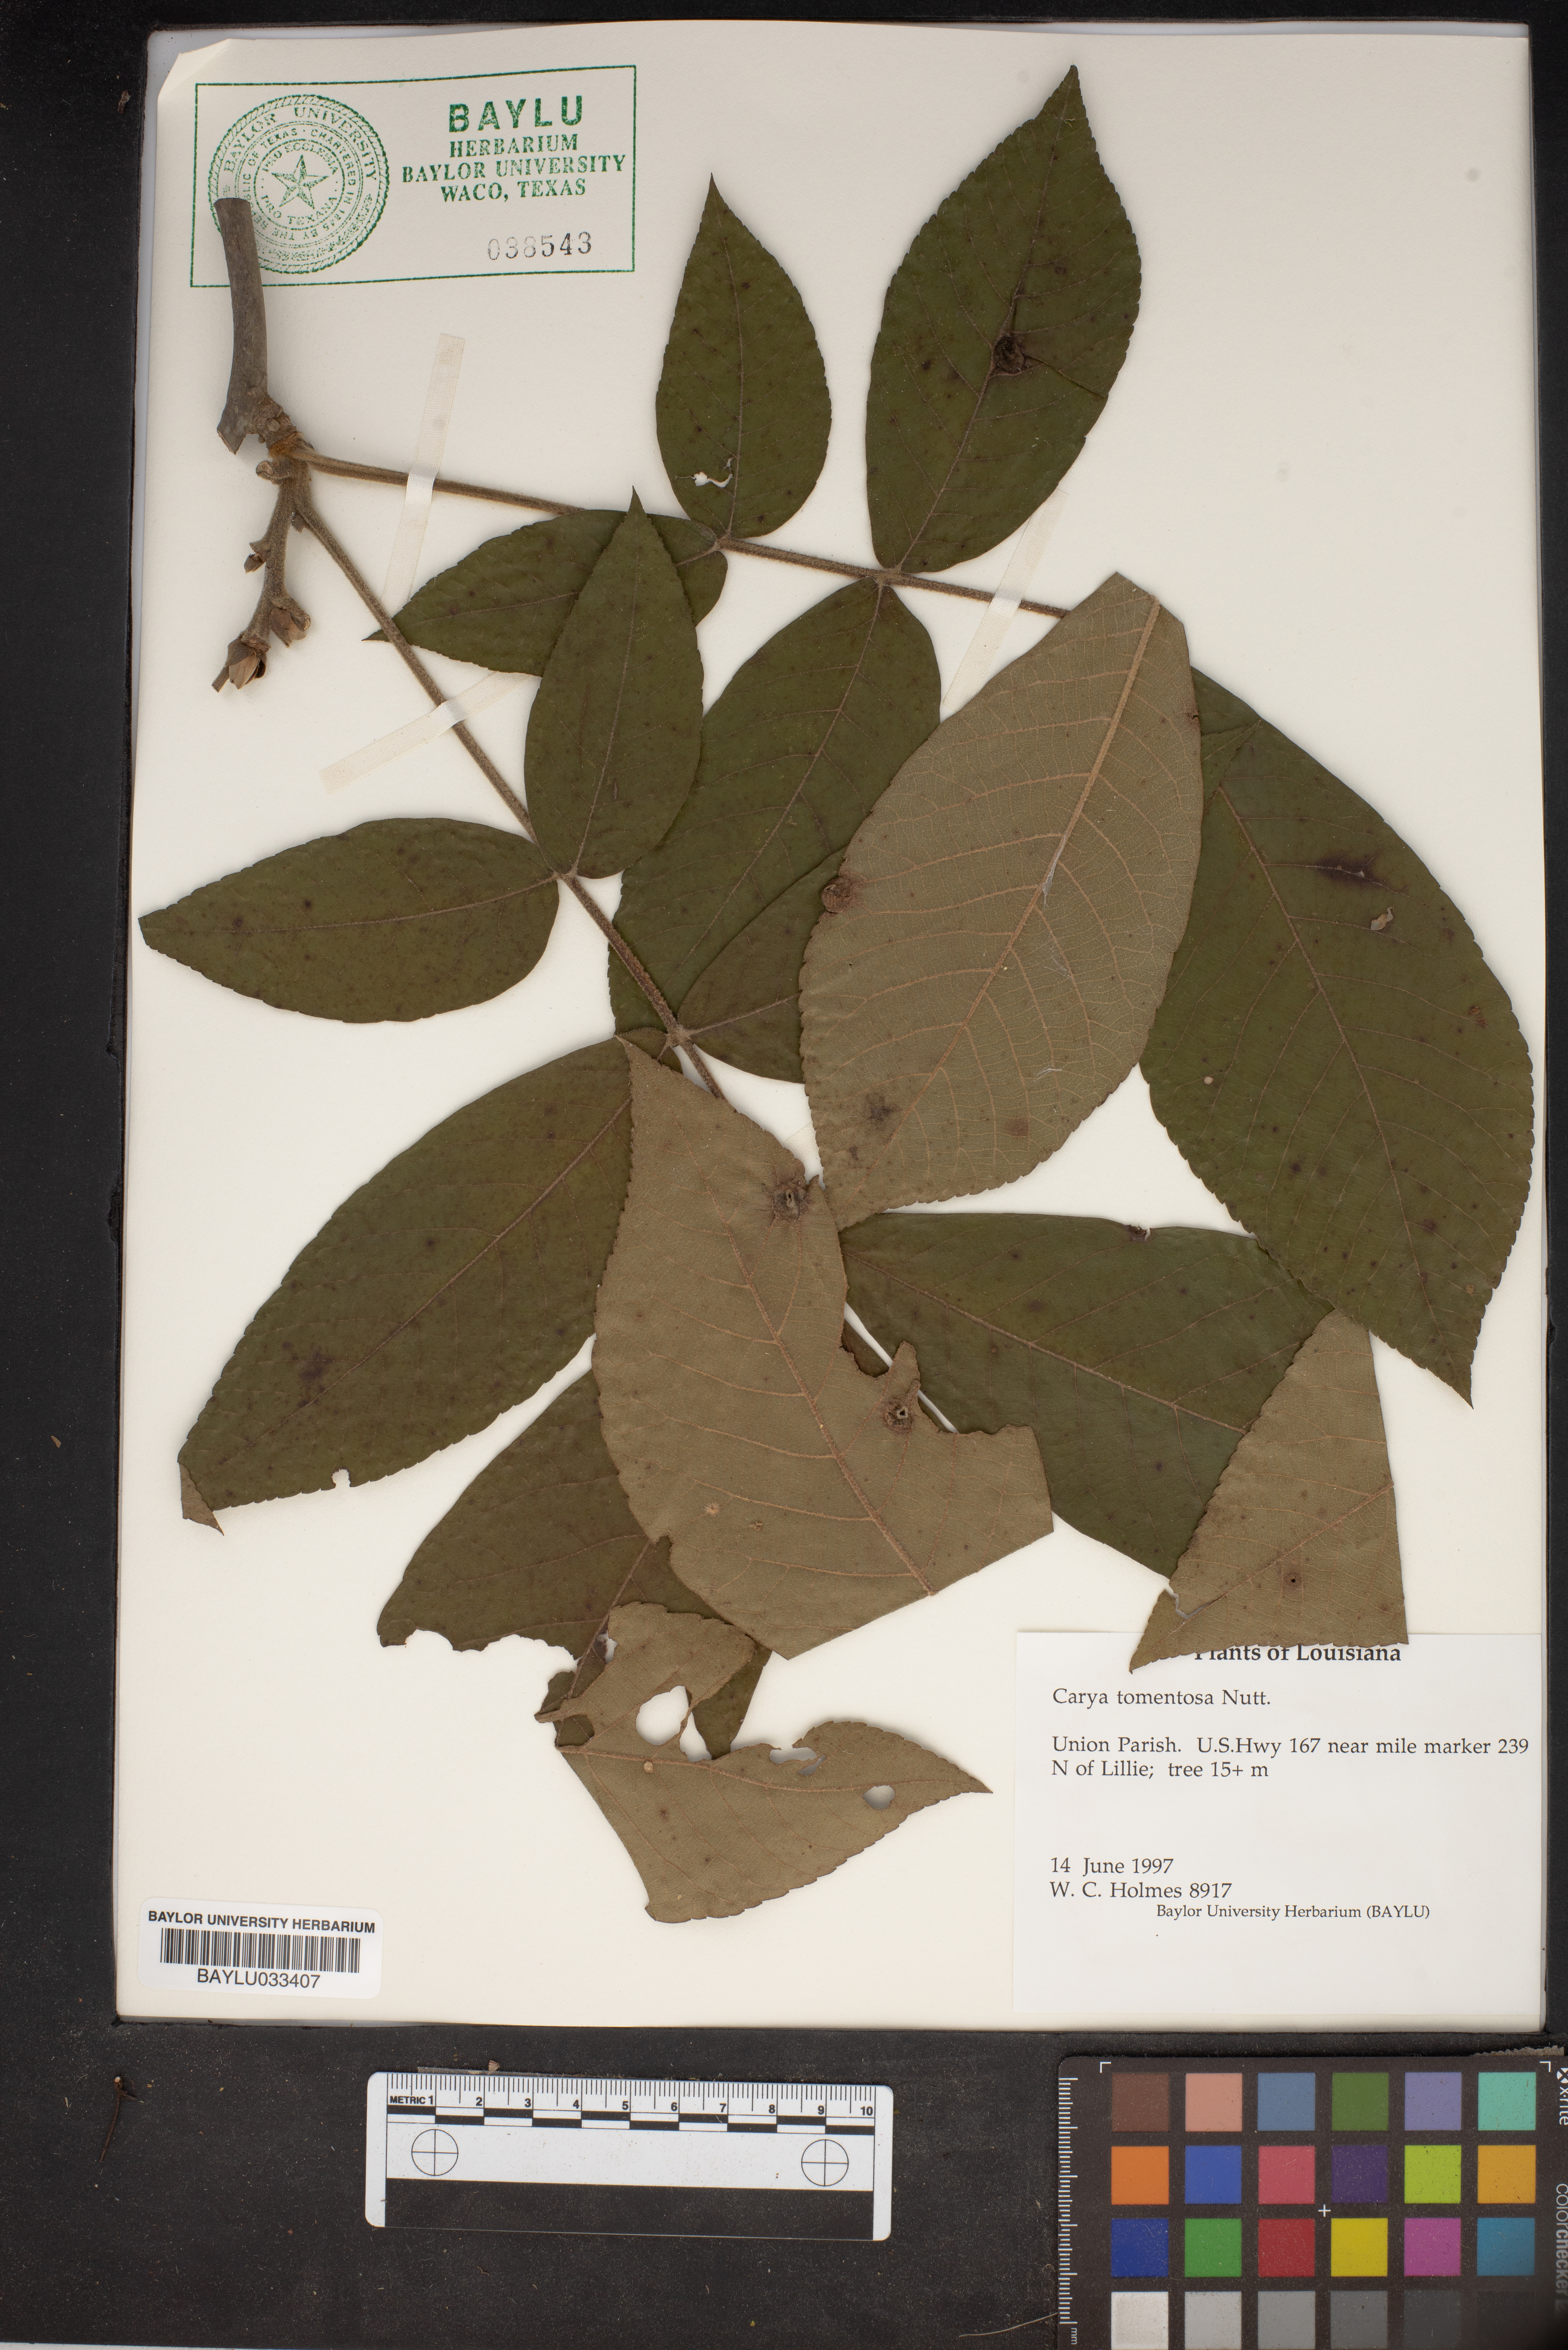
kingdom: Plantae
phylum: Tracheophyta
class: Magnoliopsida
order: Fagales
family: Juglandaceae
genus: Carya
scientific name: Carya alba
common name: Mockernut hickory
